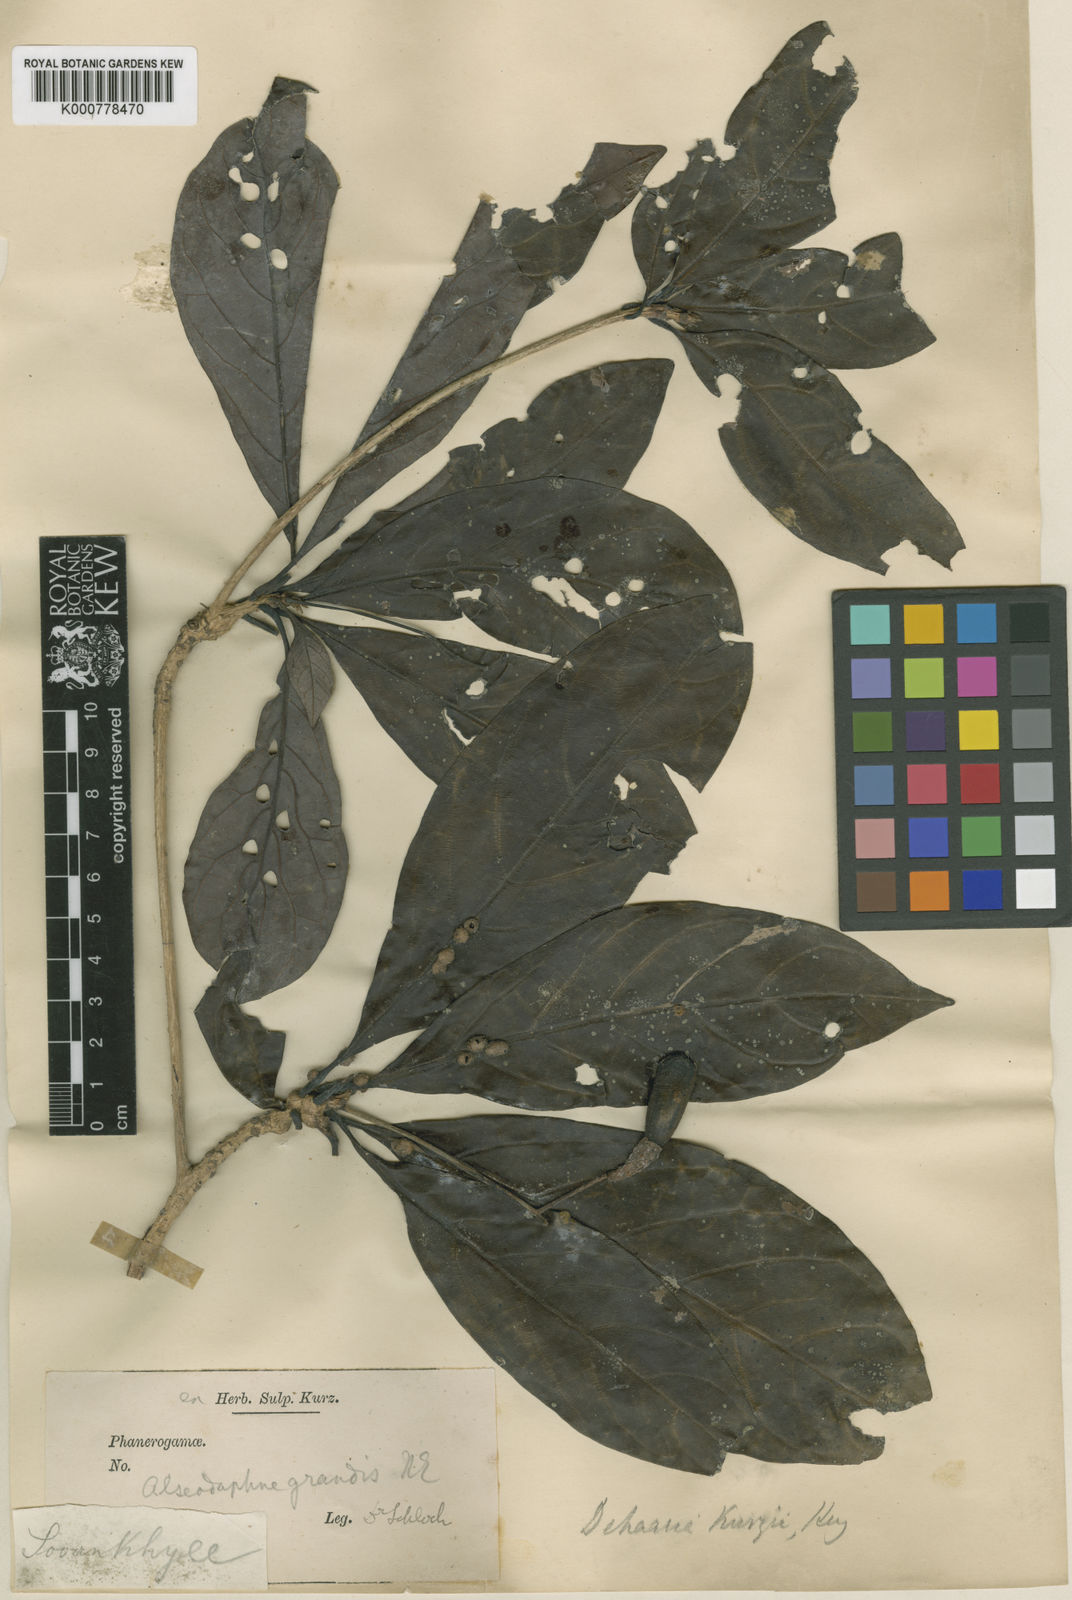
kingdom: Plantae
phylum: Tracheophyta
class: Magnoliopsida
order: Laurales
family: Lauraceae
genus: Dehaasia
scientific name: Dehaasia kurzii
